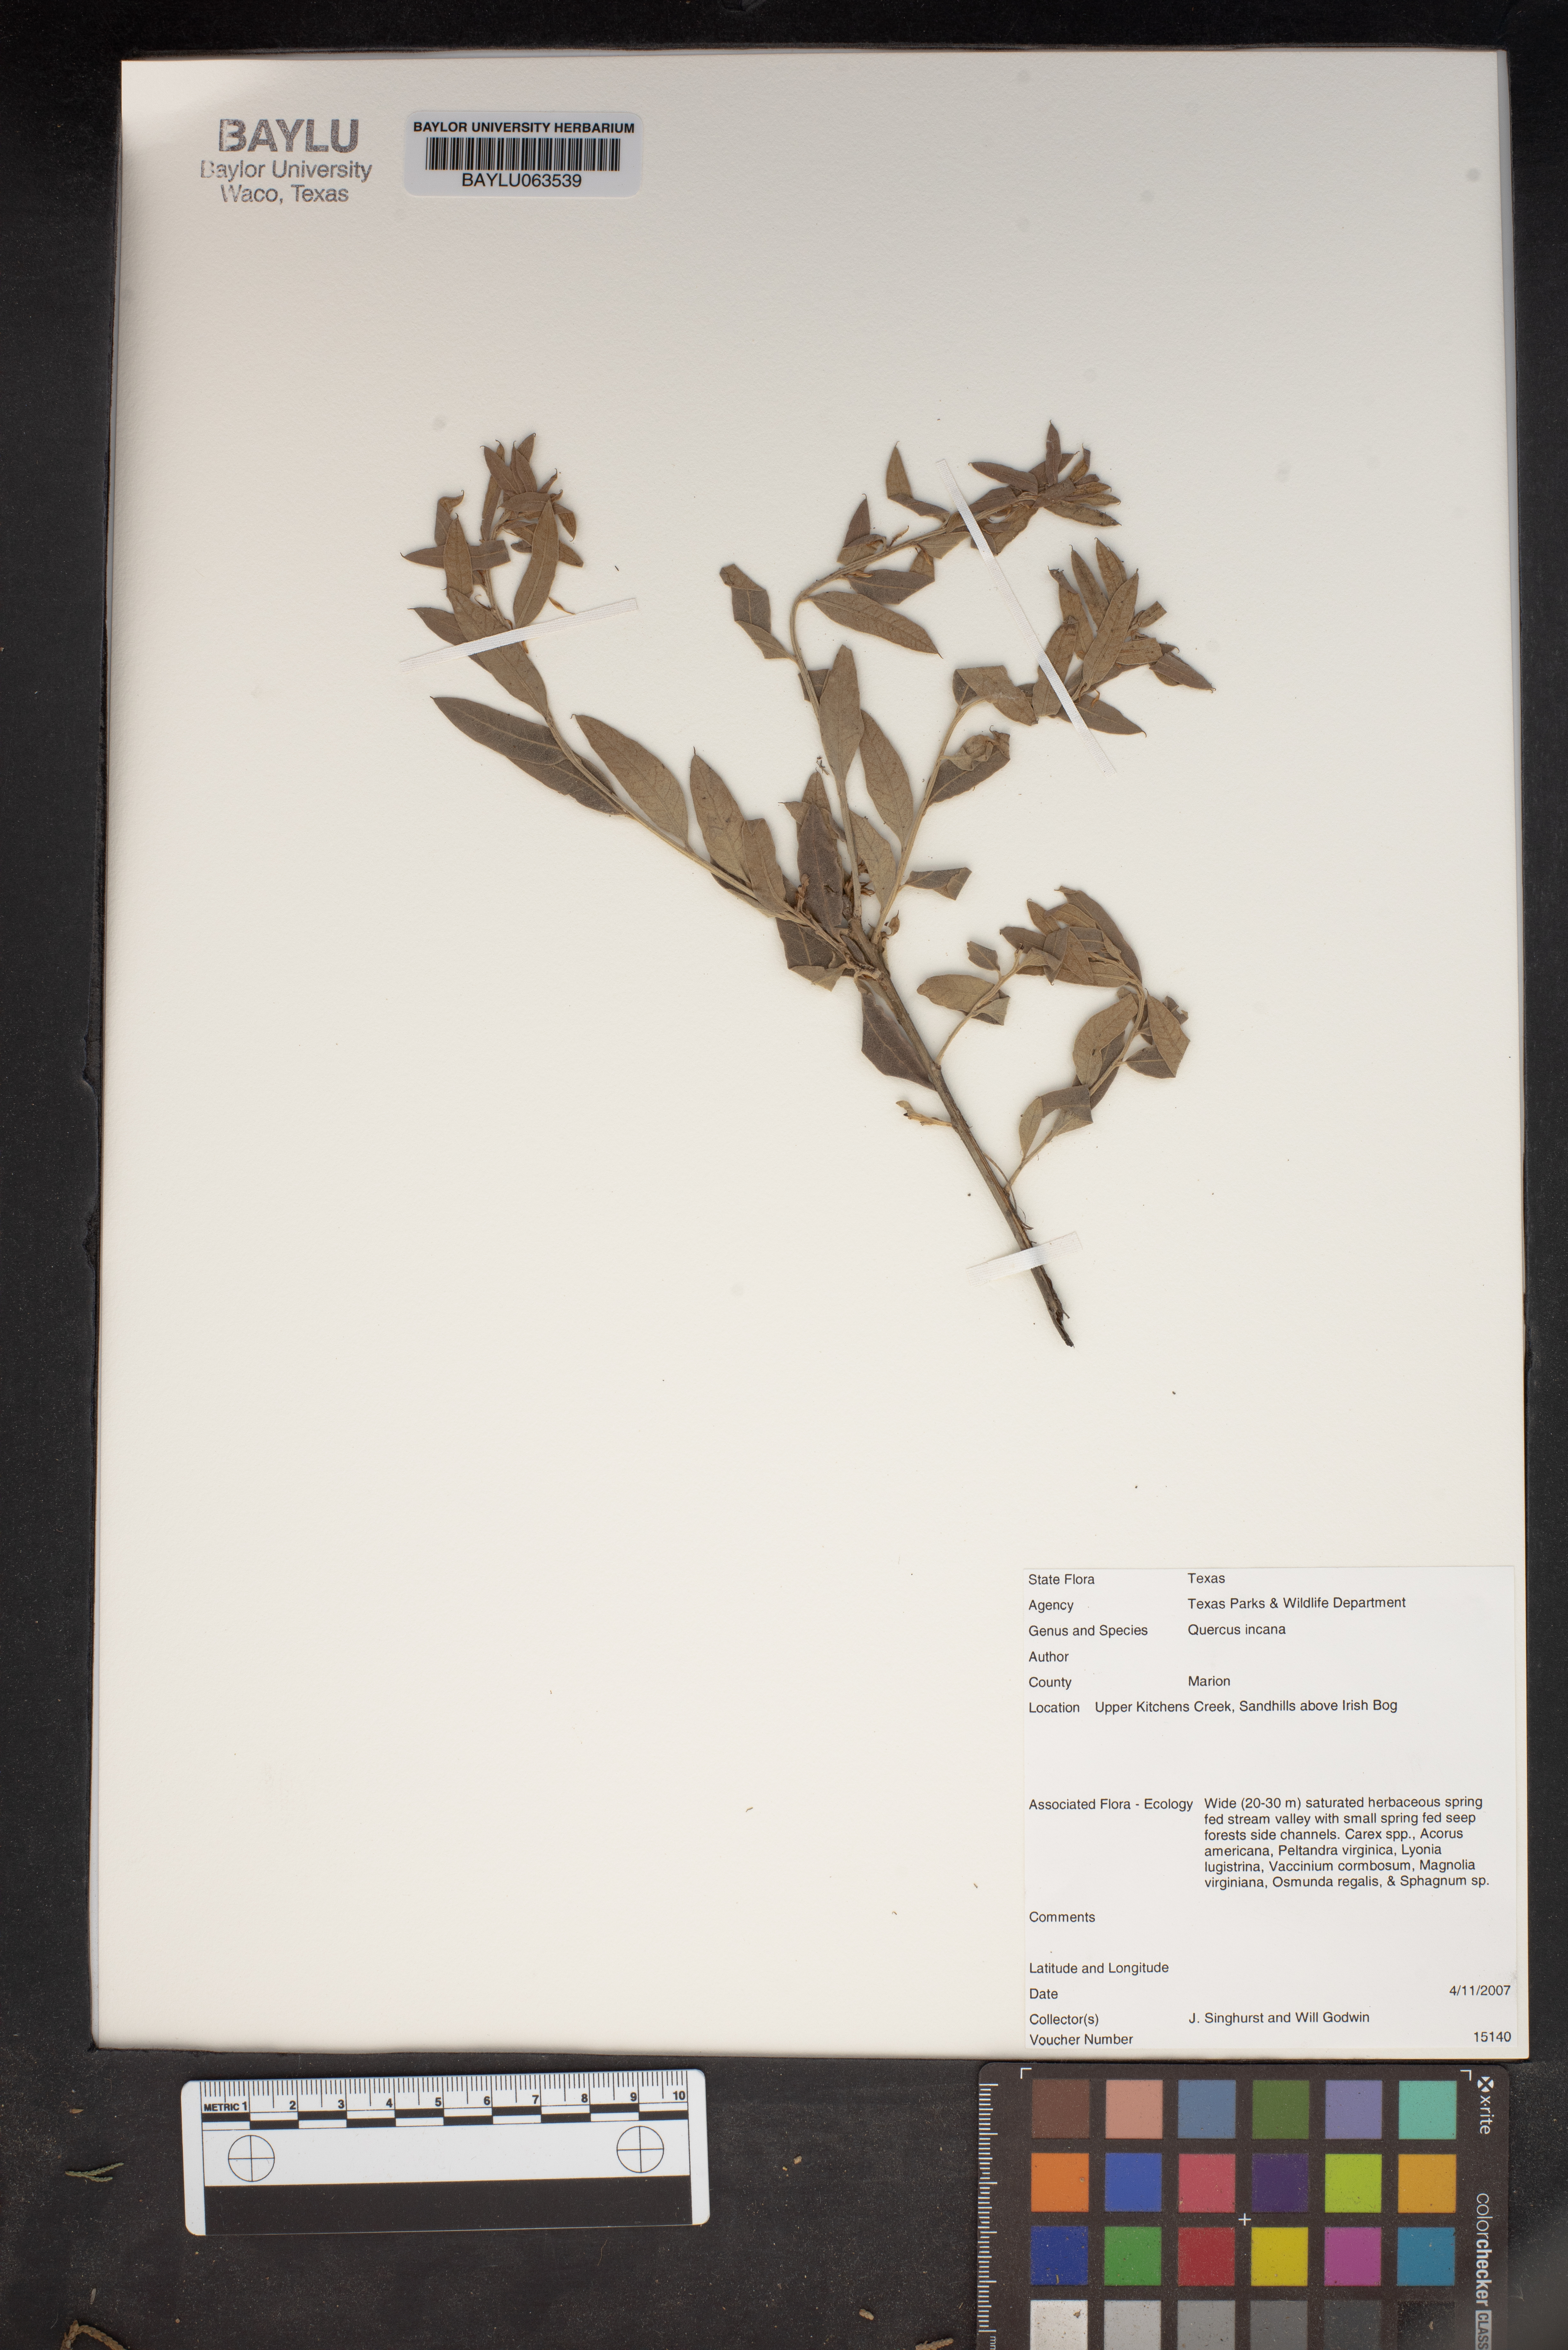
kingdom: Plantae
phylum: Tracheophyta
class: Magnoliopsida
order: Fagales
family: Fagaceae
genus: Quercus
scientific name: Quercus incana
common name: Bluejack oak
